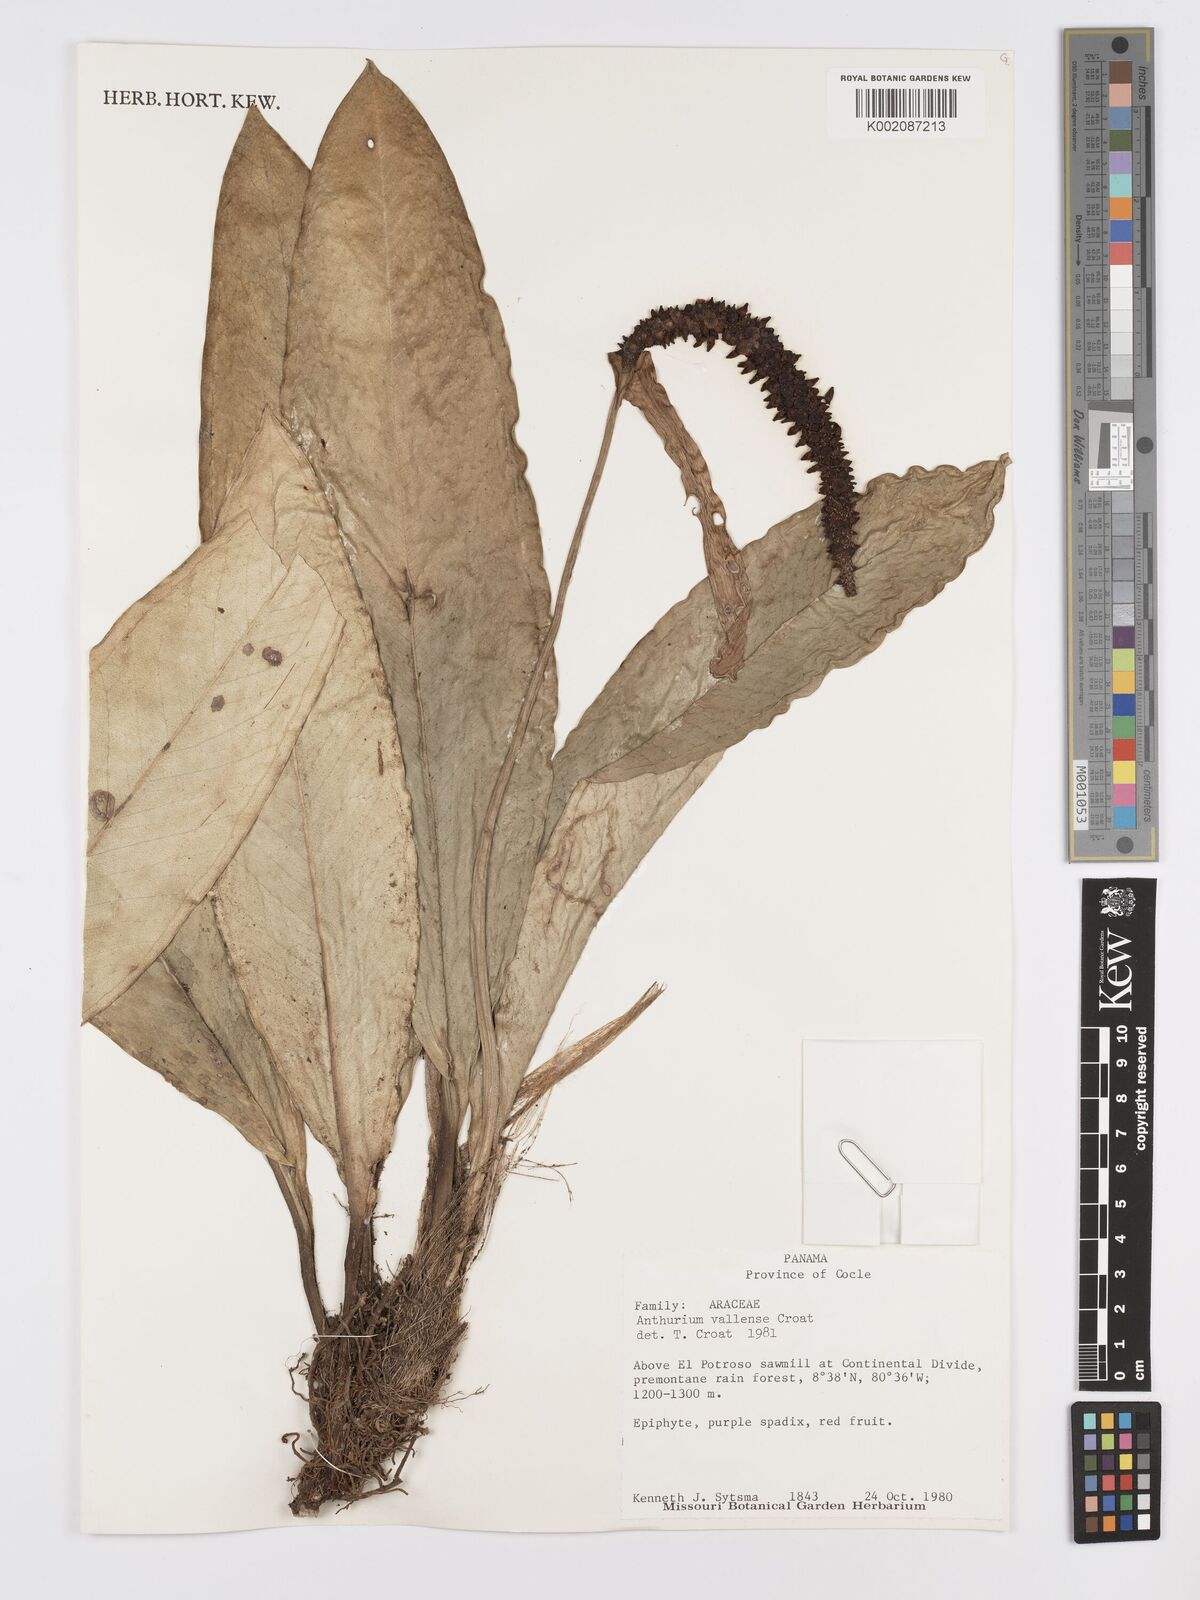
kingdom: Plantae
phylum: Tracheophyta
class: Liliopsida
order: Alismatales
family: Araceae
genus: Anthurium
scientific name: Anthurium vallense
